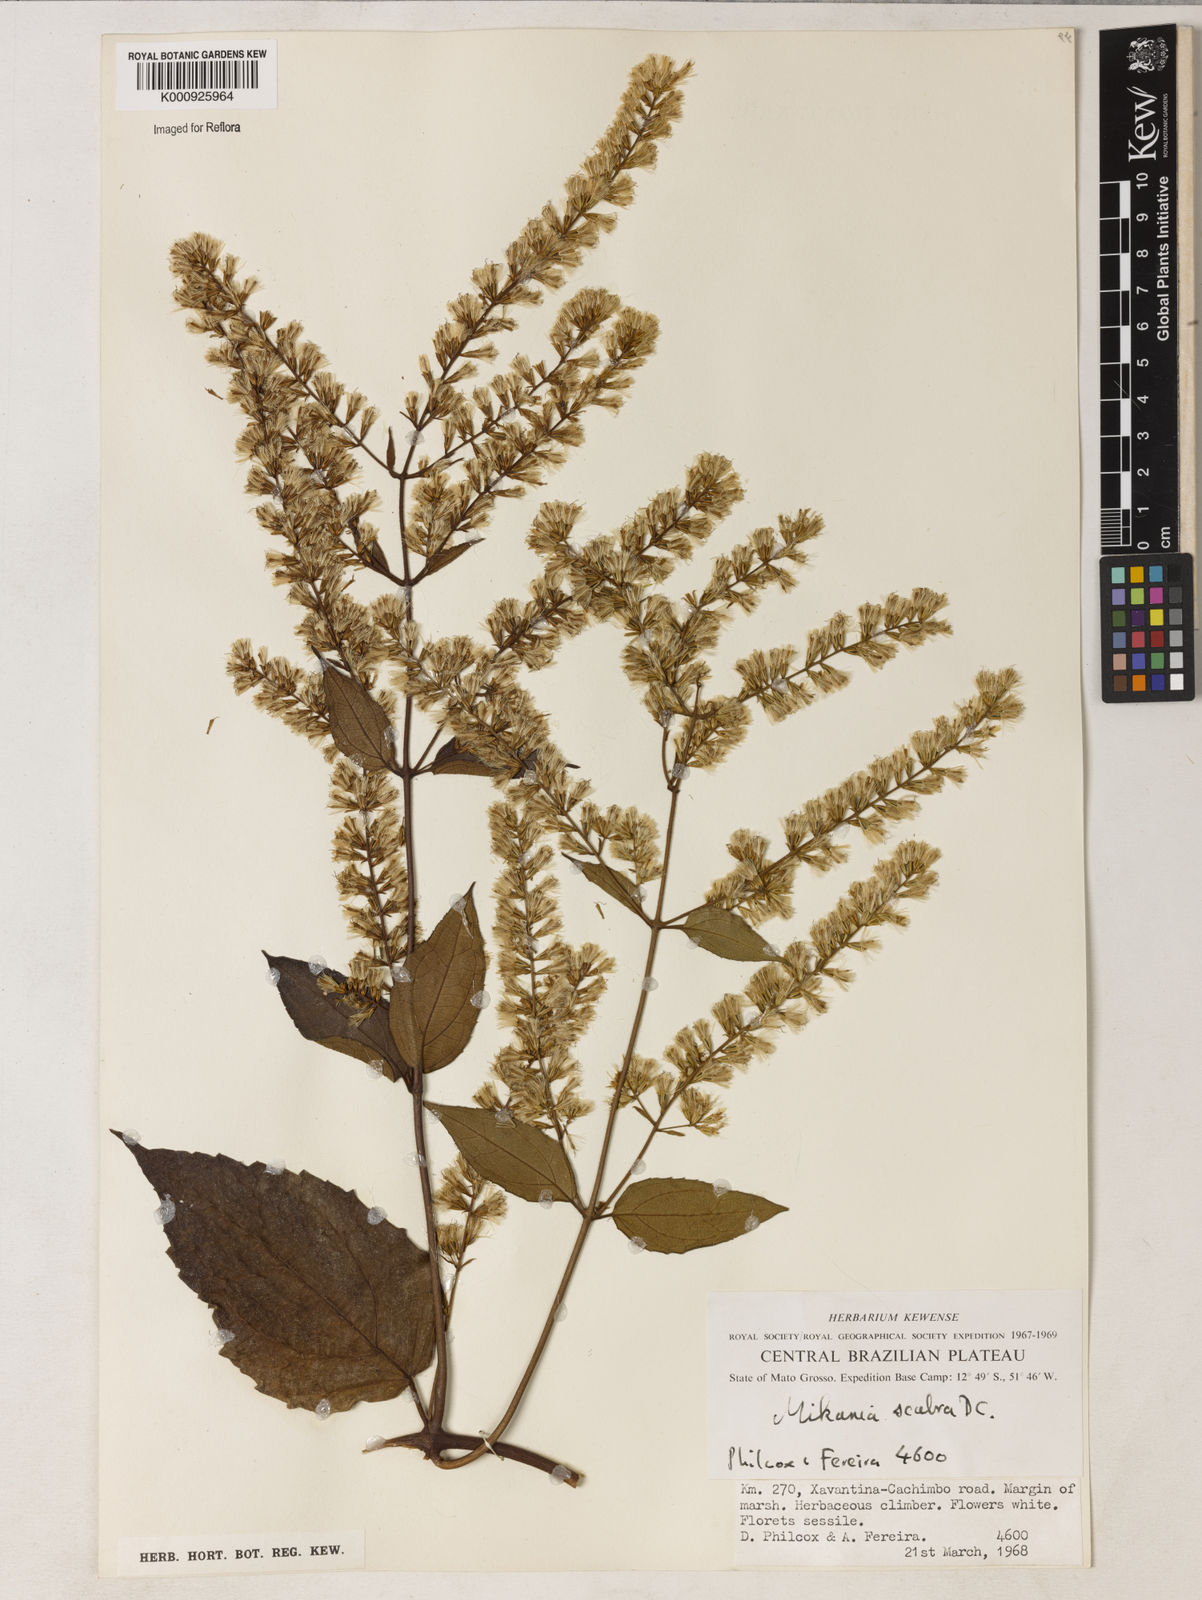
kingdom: Plantae
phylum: Tracheophyta
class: Magnoliopsida
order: Asterales
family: Asteraceae
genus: Mikania
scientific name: Mikania psilostachya
